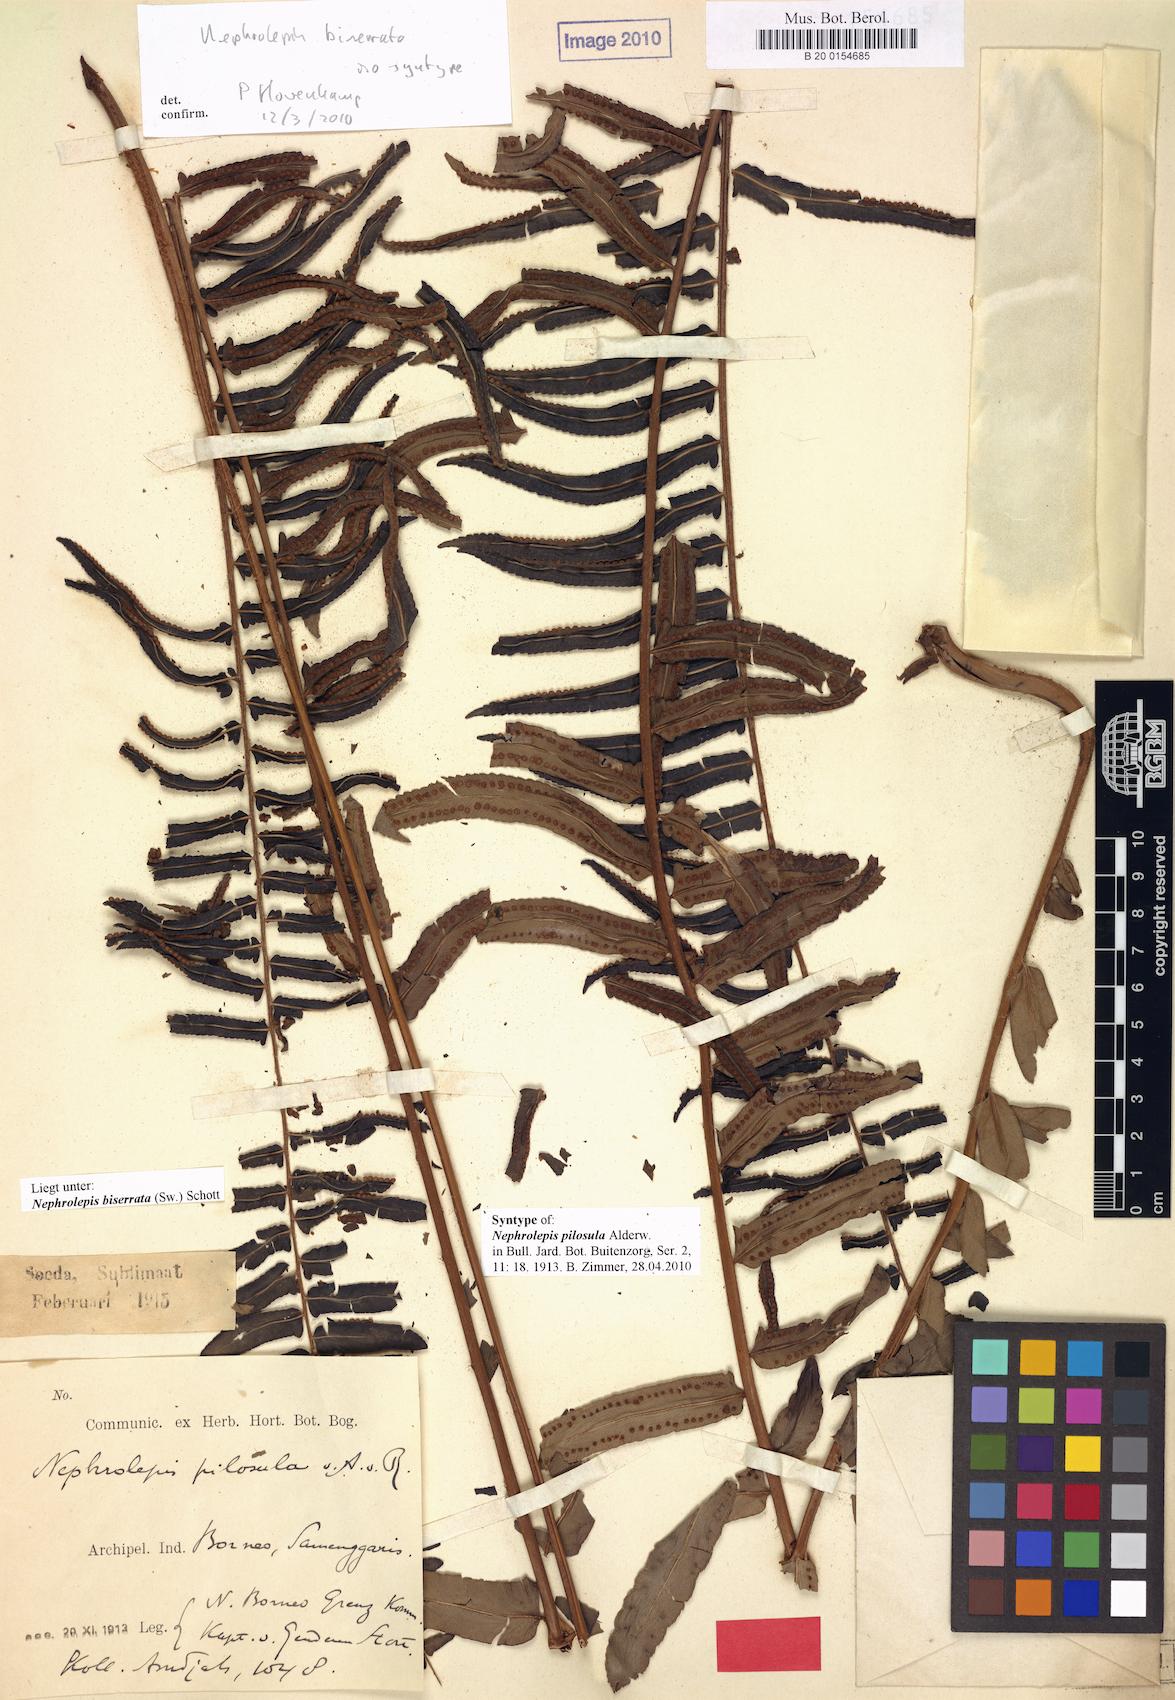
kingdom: Plantae
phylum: Tracheophyta
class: Polypodiopsida
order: Polypodiales
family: Nephrolepidaceae
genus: Nephrolepis
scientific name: Nephrolepis biserrata
